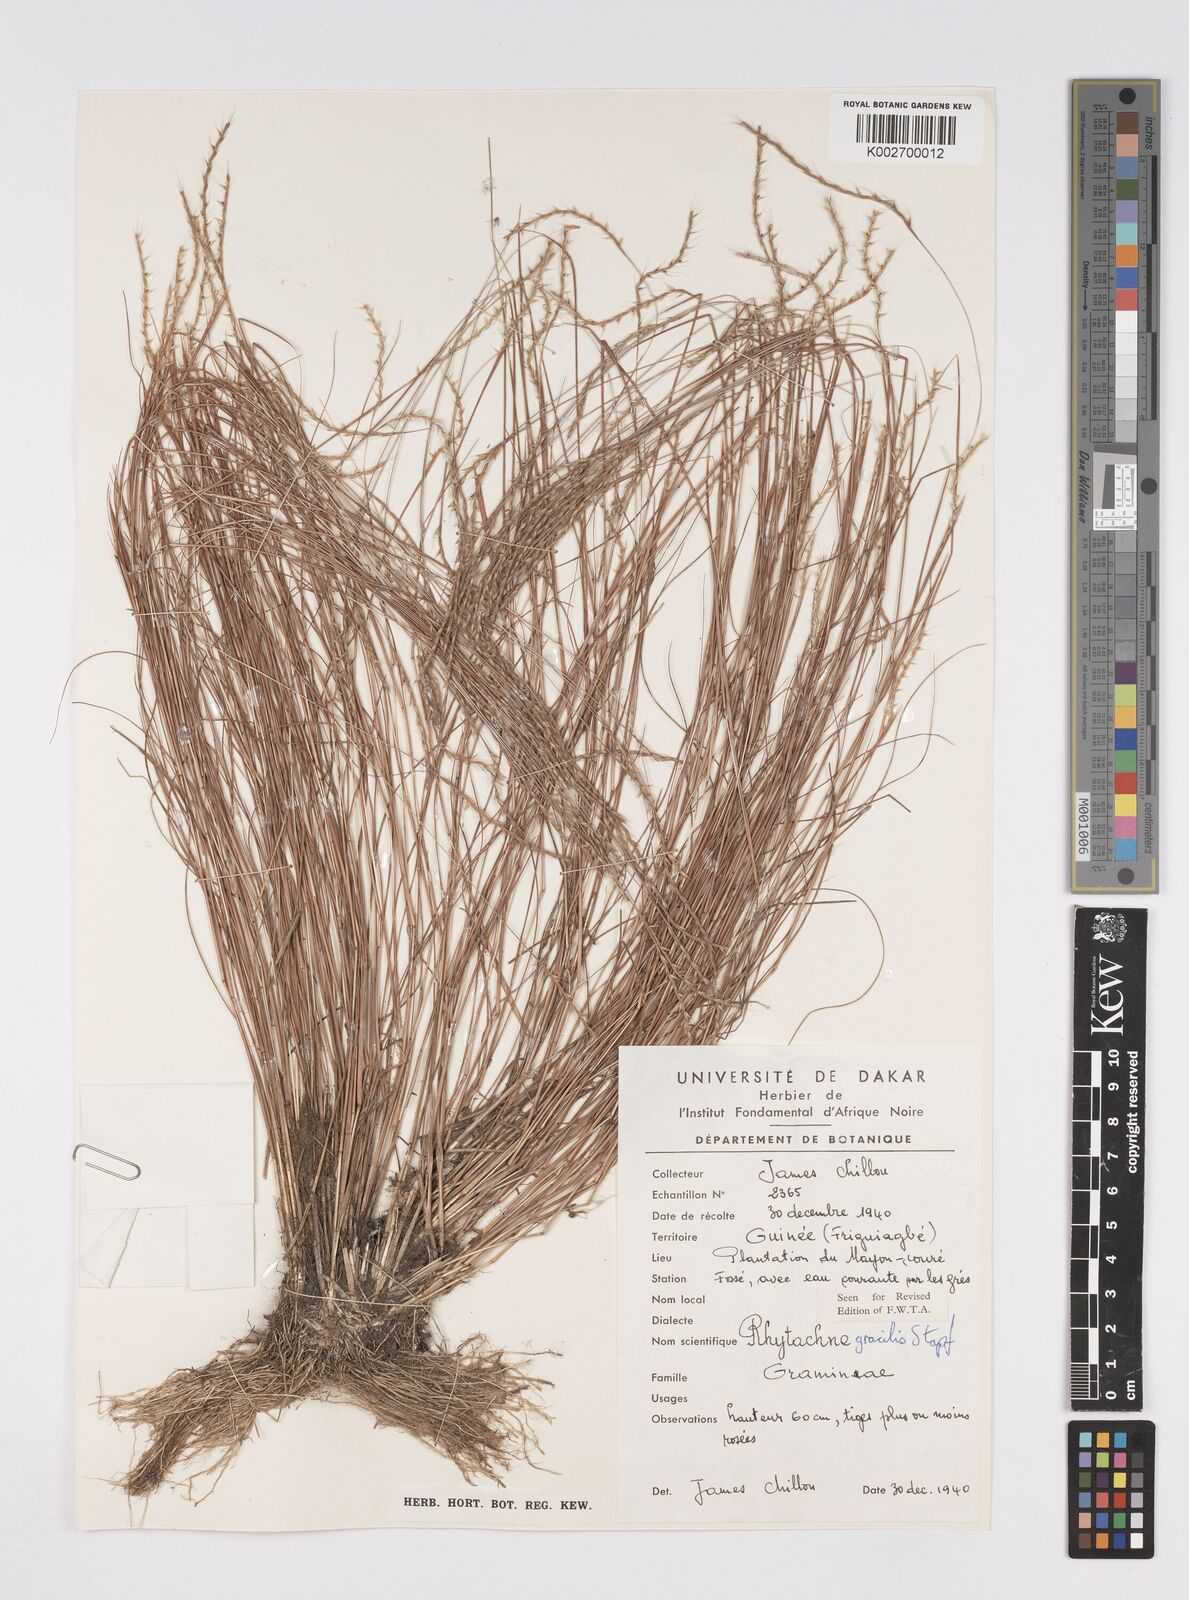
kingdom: Plantae
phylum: Tracheophyta
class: Liliopsida
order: Poales
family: Poaceae
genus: Rhytachne
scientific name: Rhytachne gracilis
